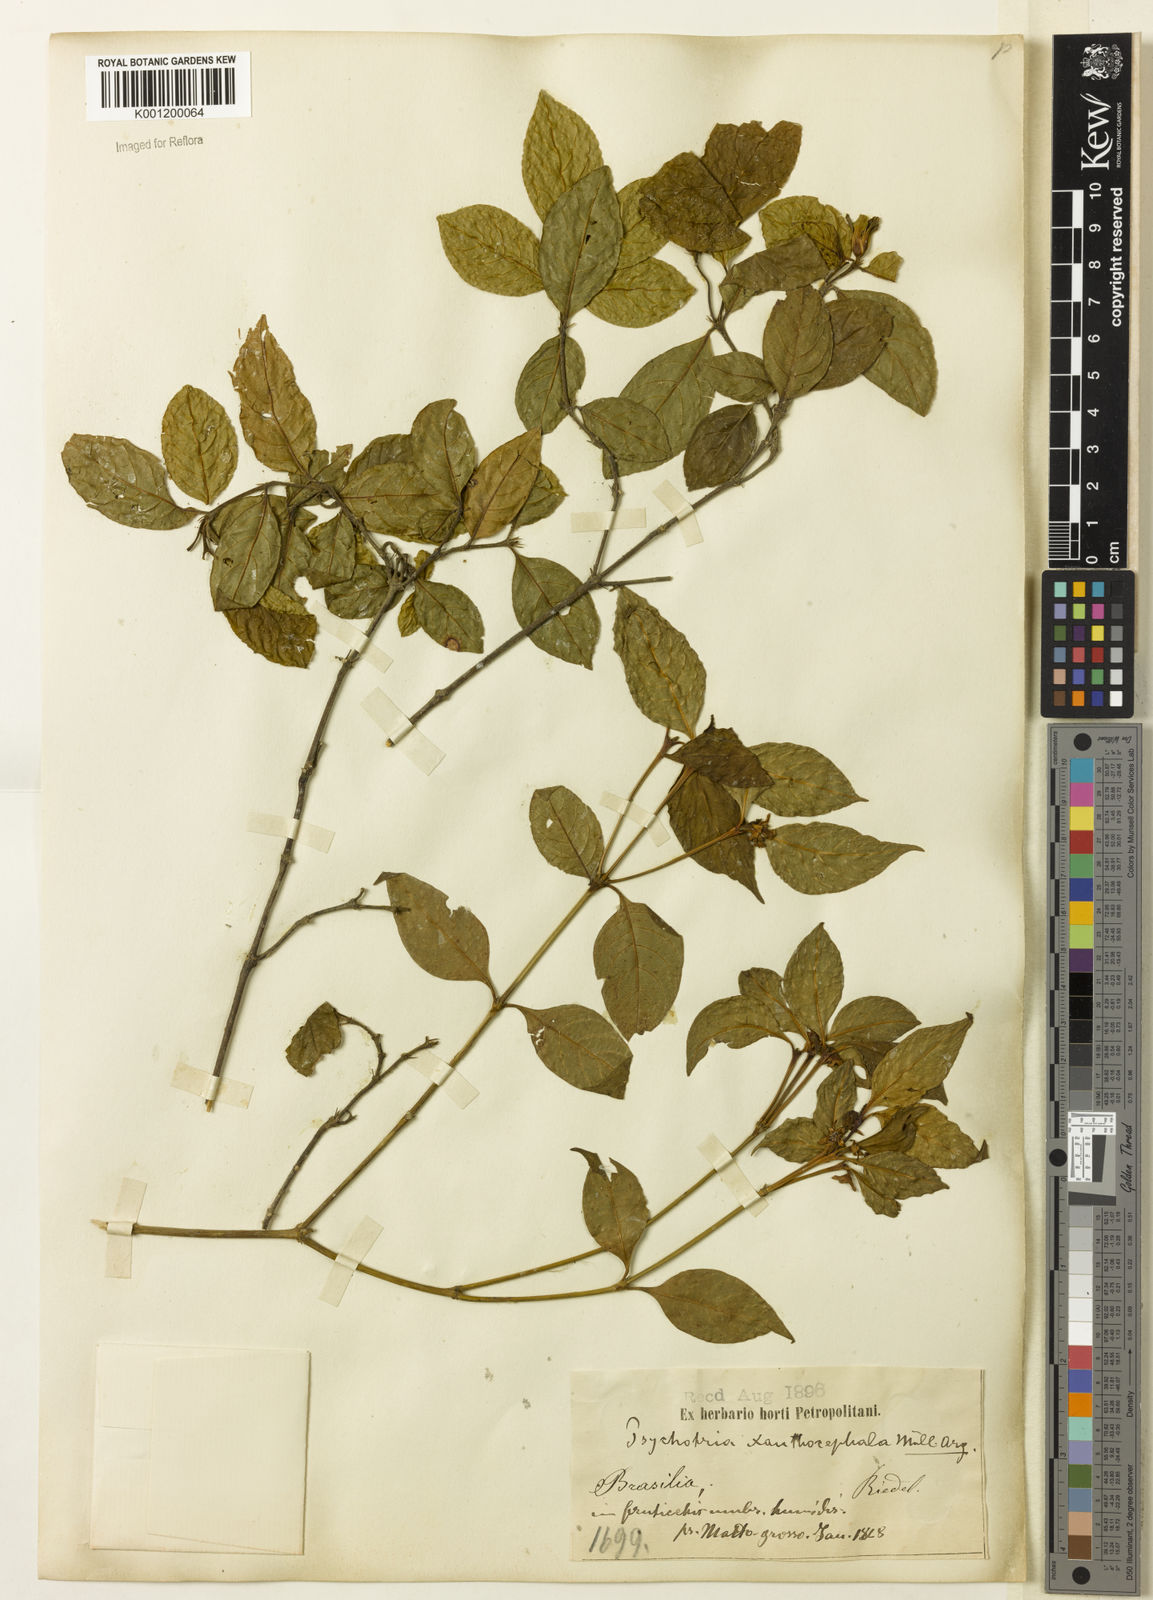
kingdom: Plantae
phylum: Tracheophyta
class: Magnoliopsida
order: Gentianales
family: Rubiaceae
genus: Psychotria
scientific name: Psychotria
